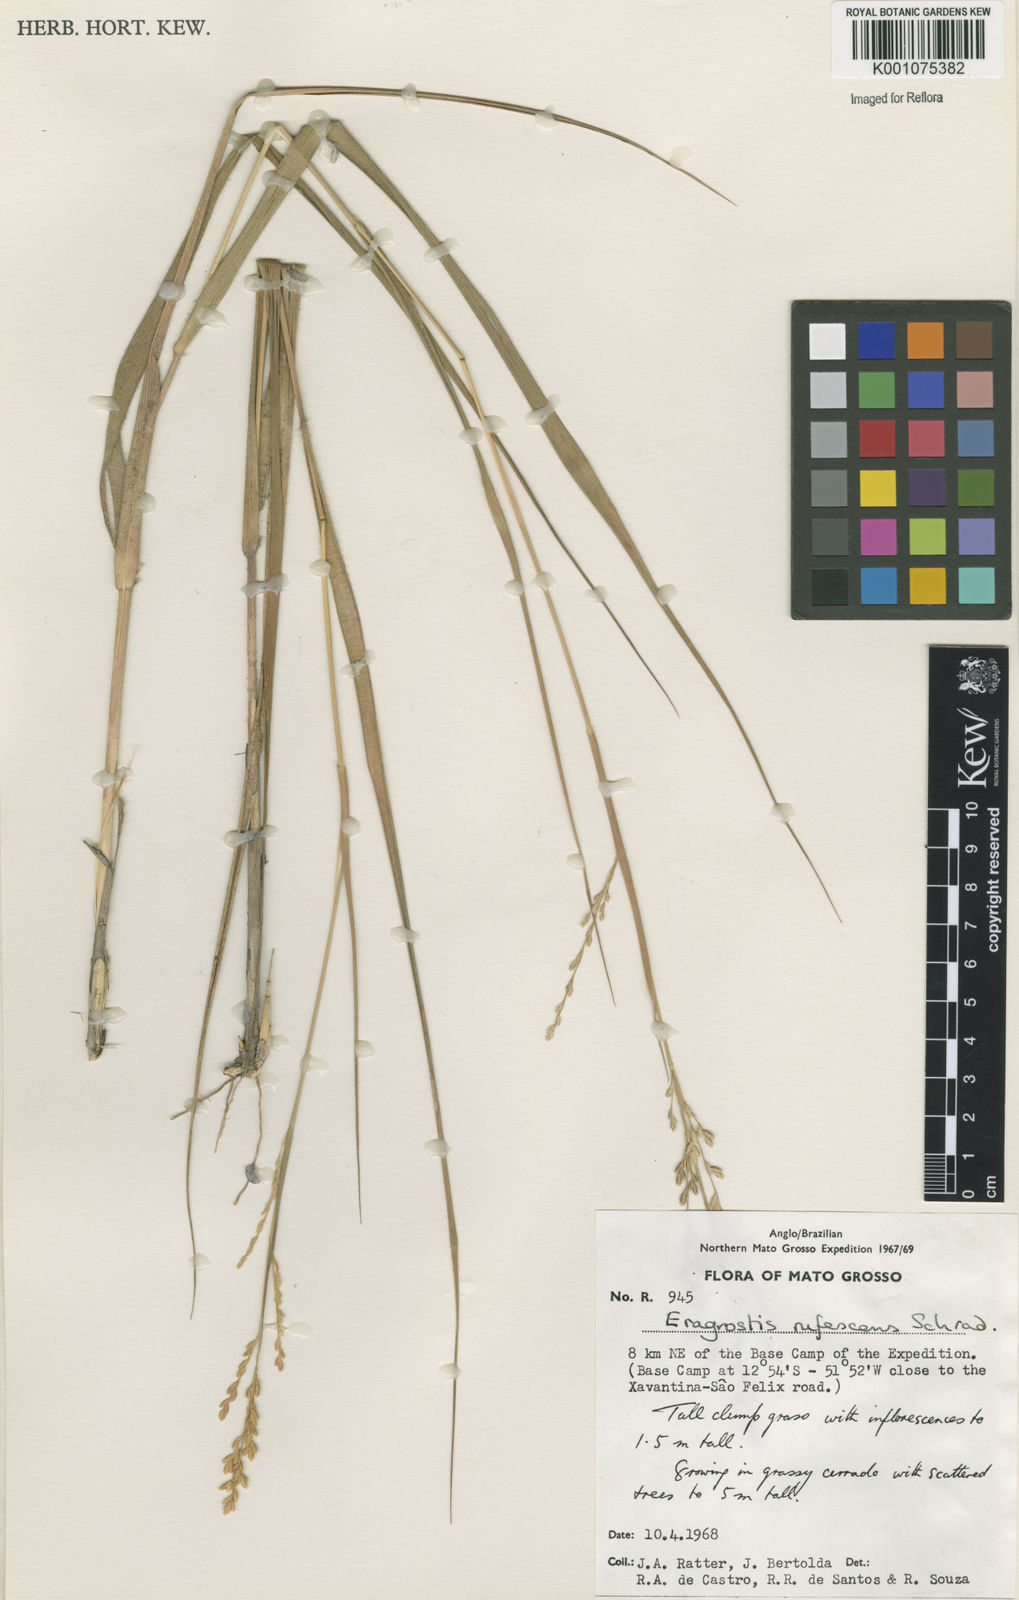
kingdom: Plantae
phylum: Tracheophyta
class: Liliopsida
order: Poales
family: Poaceae
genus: Eragrostis
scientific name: Eragrostis solida
